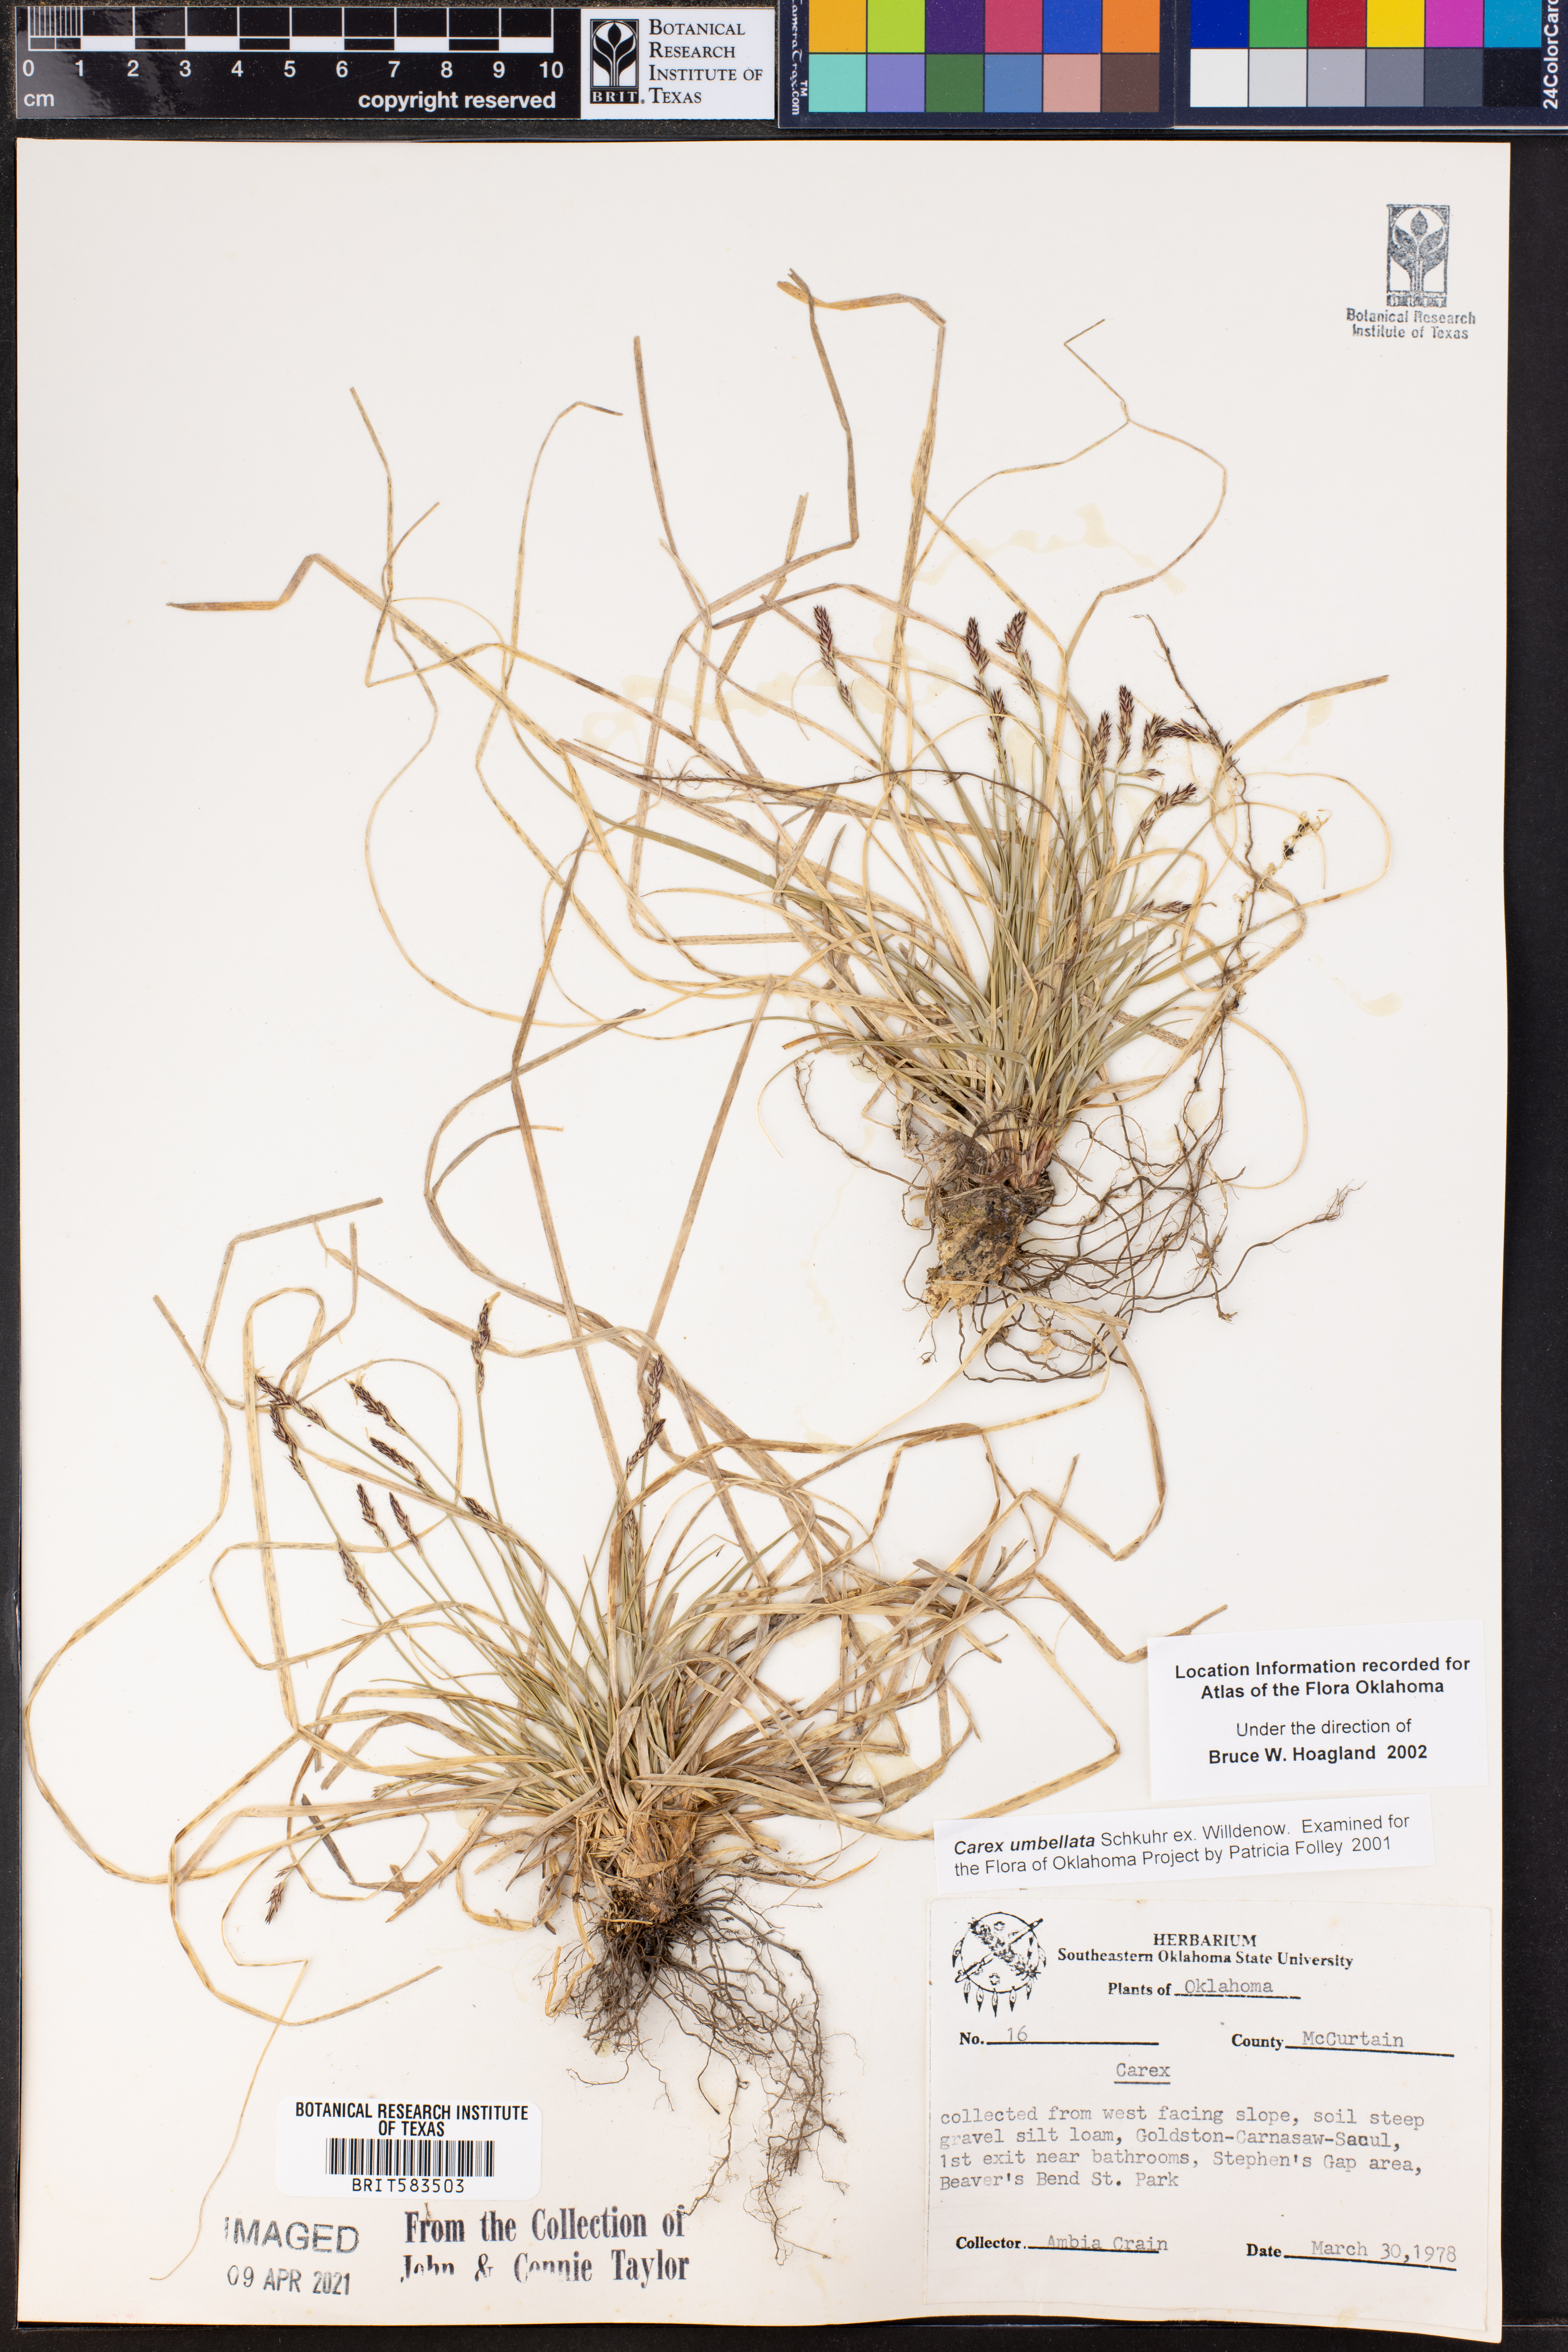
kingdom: Plantae
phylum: Tracheophyta
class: Liliopsida
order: Poales
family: Cyperaceae
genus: Carex
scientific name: Carex umbellata
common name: Early oak sedge
